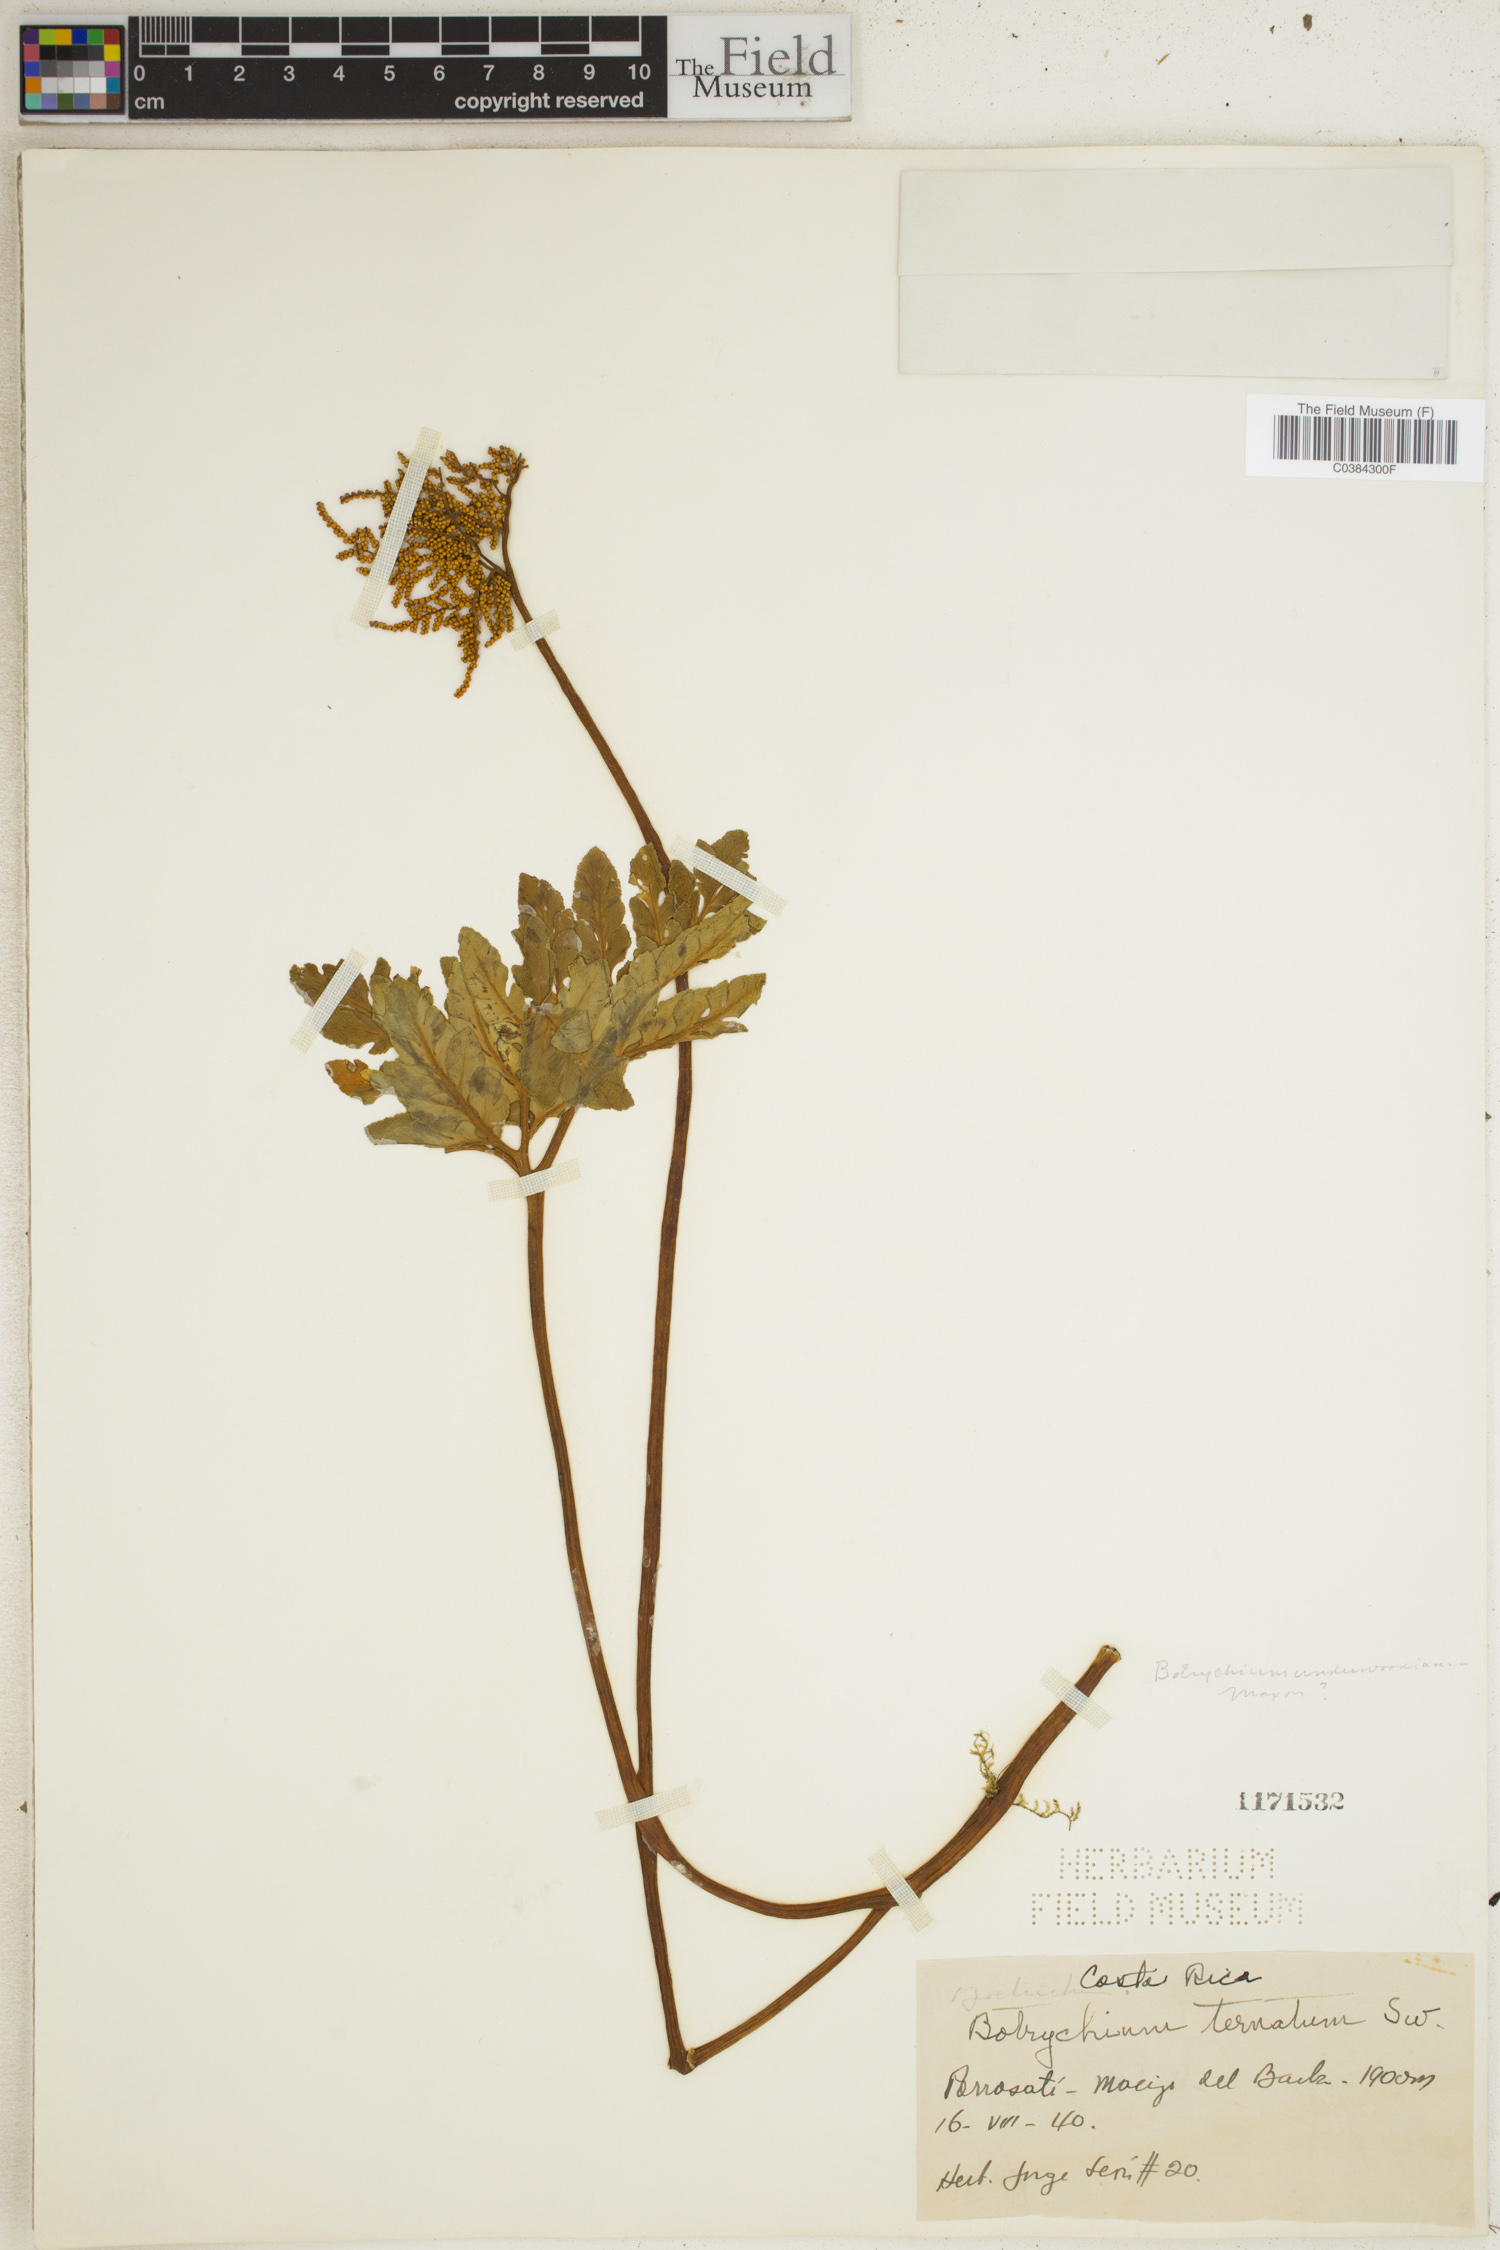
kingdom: Plantae
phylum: Tracheophyta
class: Polypodiopsida
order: Ophioglossales
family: Ophioglossaceae
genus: Sceptridium
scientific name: Sceptridium ternatum
